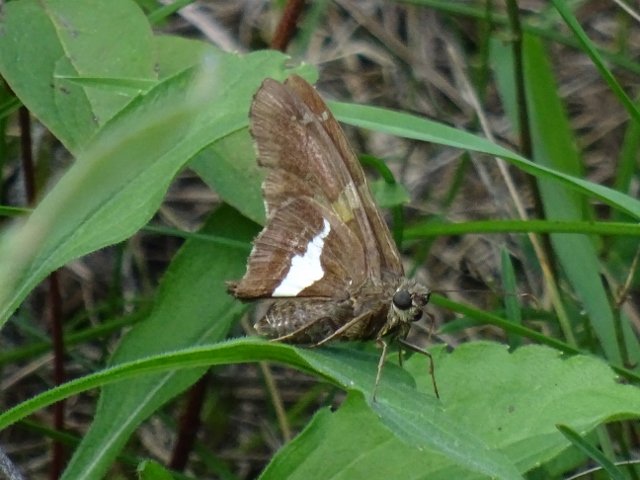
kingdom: Animalia
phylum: Arthropoda
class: Insecta
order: Lepidoptera
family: Hesperiidae
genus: Epargyreus
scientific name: Epargyreus clarus
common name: Silver-spotted Skipper
